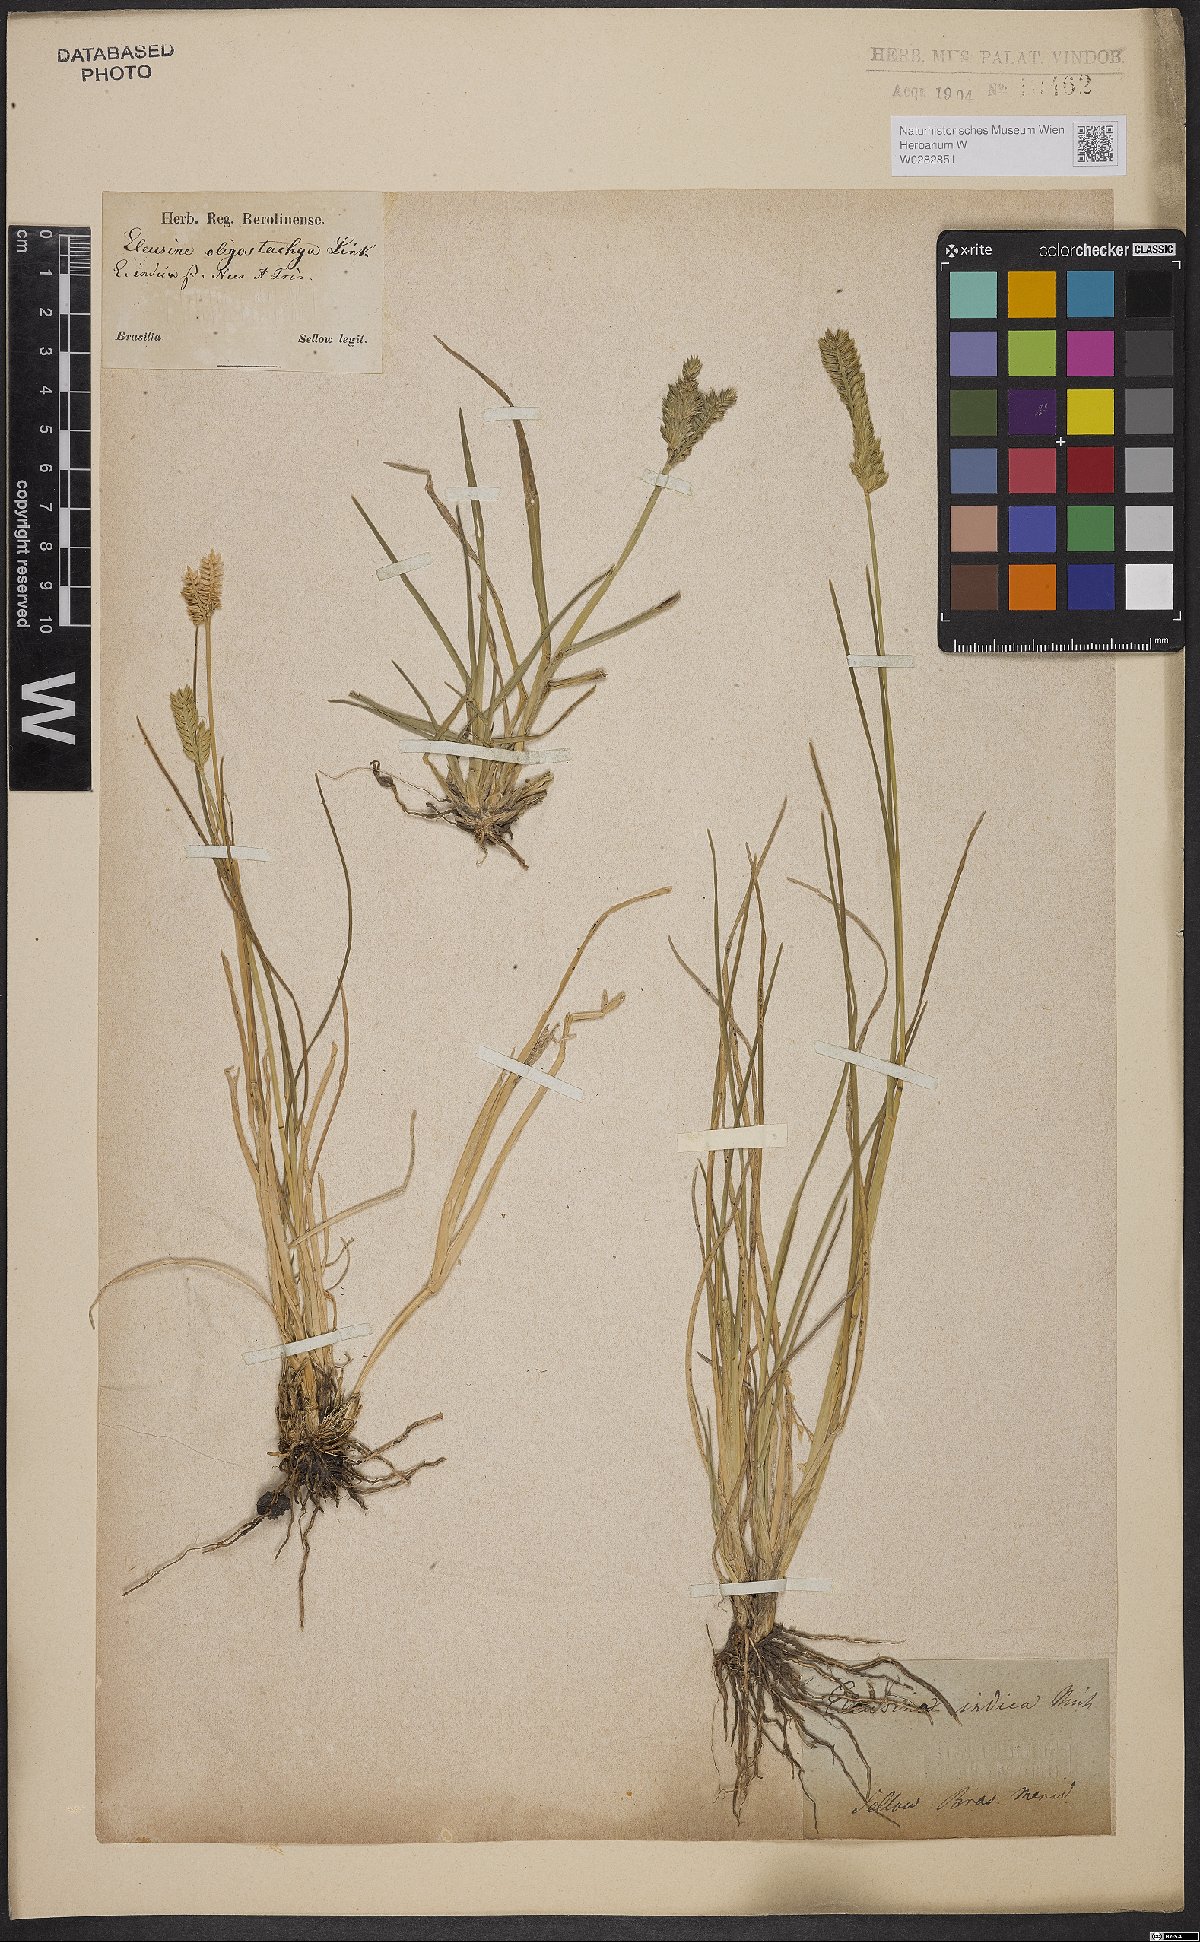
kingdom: Plantae
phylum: Tracheophyta
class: Liliopsida
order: Poales
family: Poaceae
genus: Eleusine
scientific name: Eleusine indica
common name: Yard-grass
